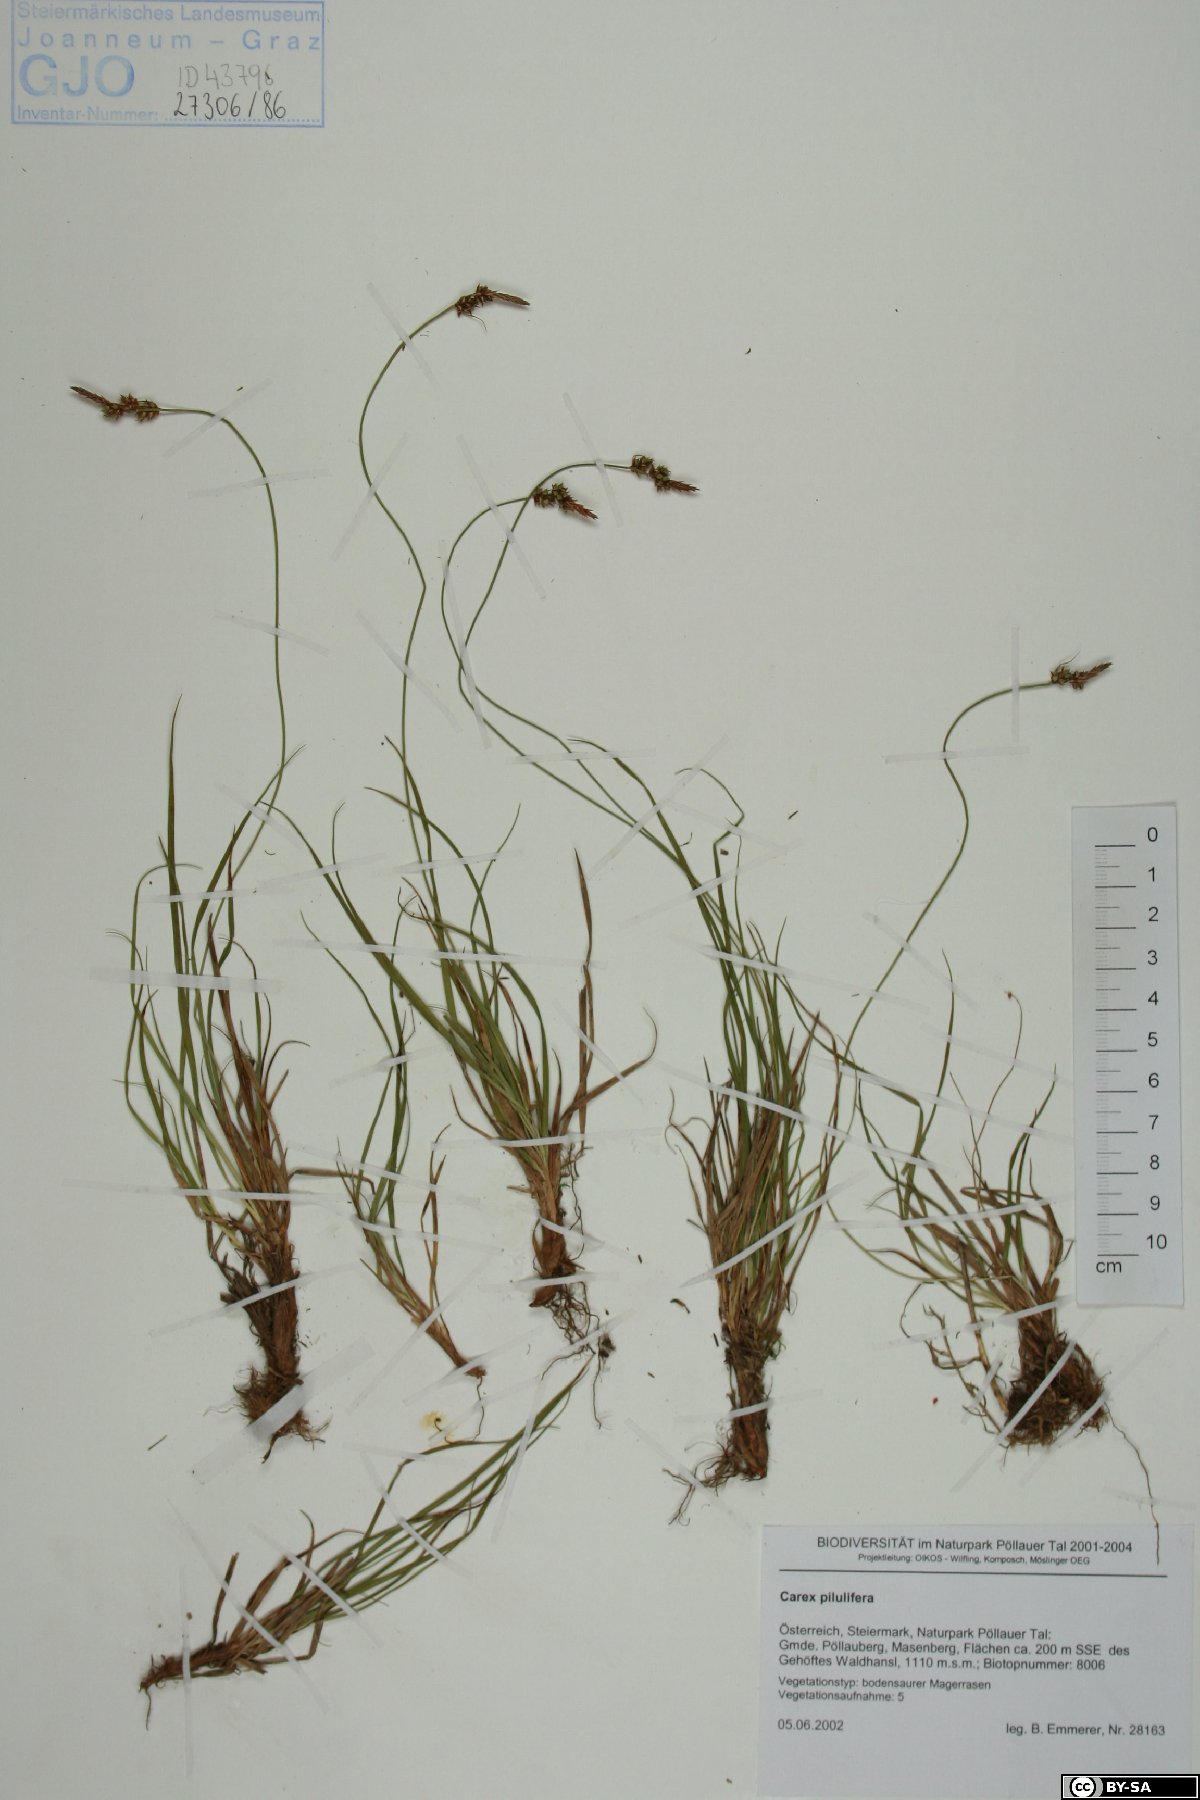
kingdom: Plantae
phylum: Tracheophyta
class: Liliopsida
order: Poales
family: Cyperaceae
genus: Carex
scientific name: Carex pilulifera
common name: Pill sedge
